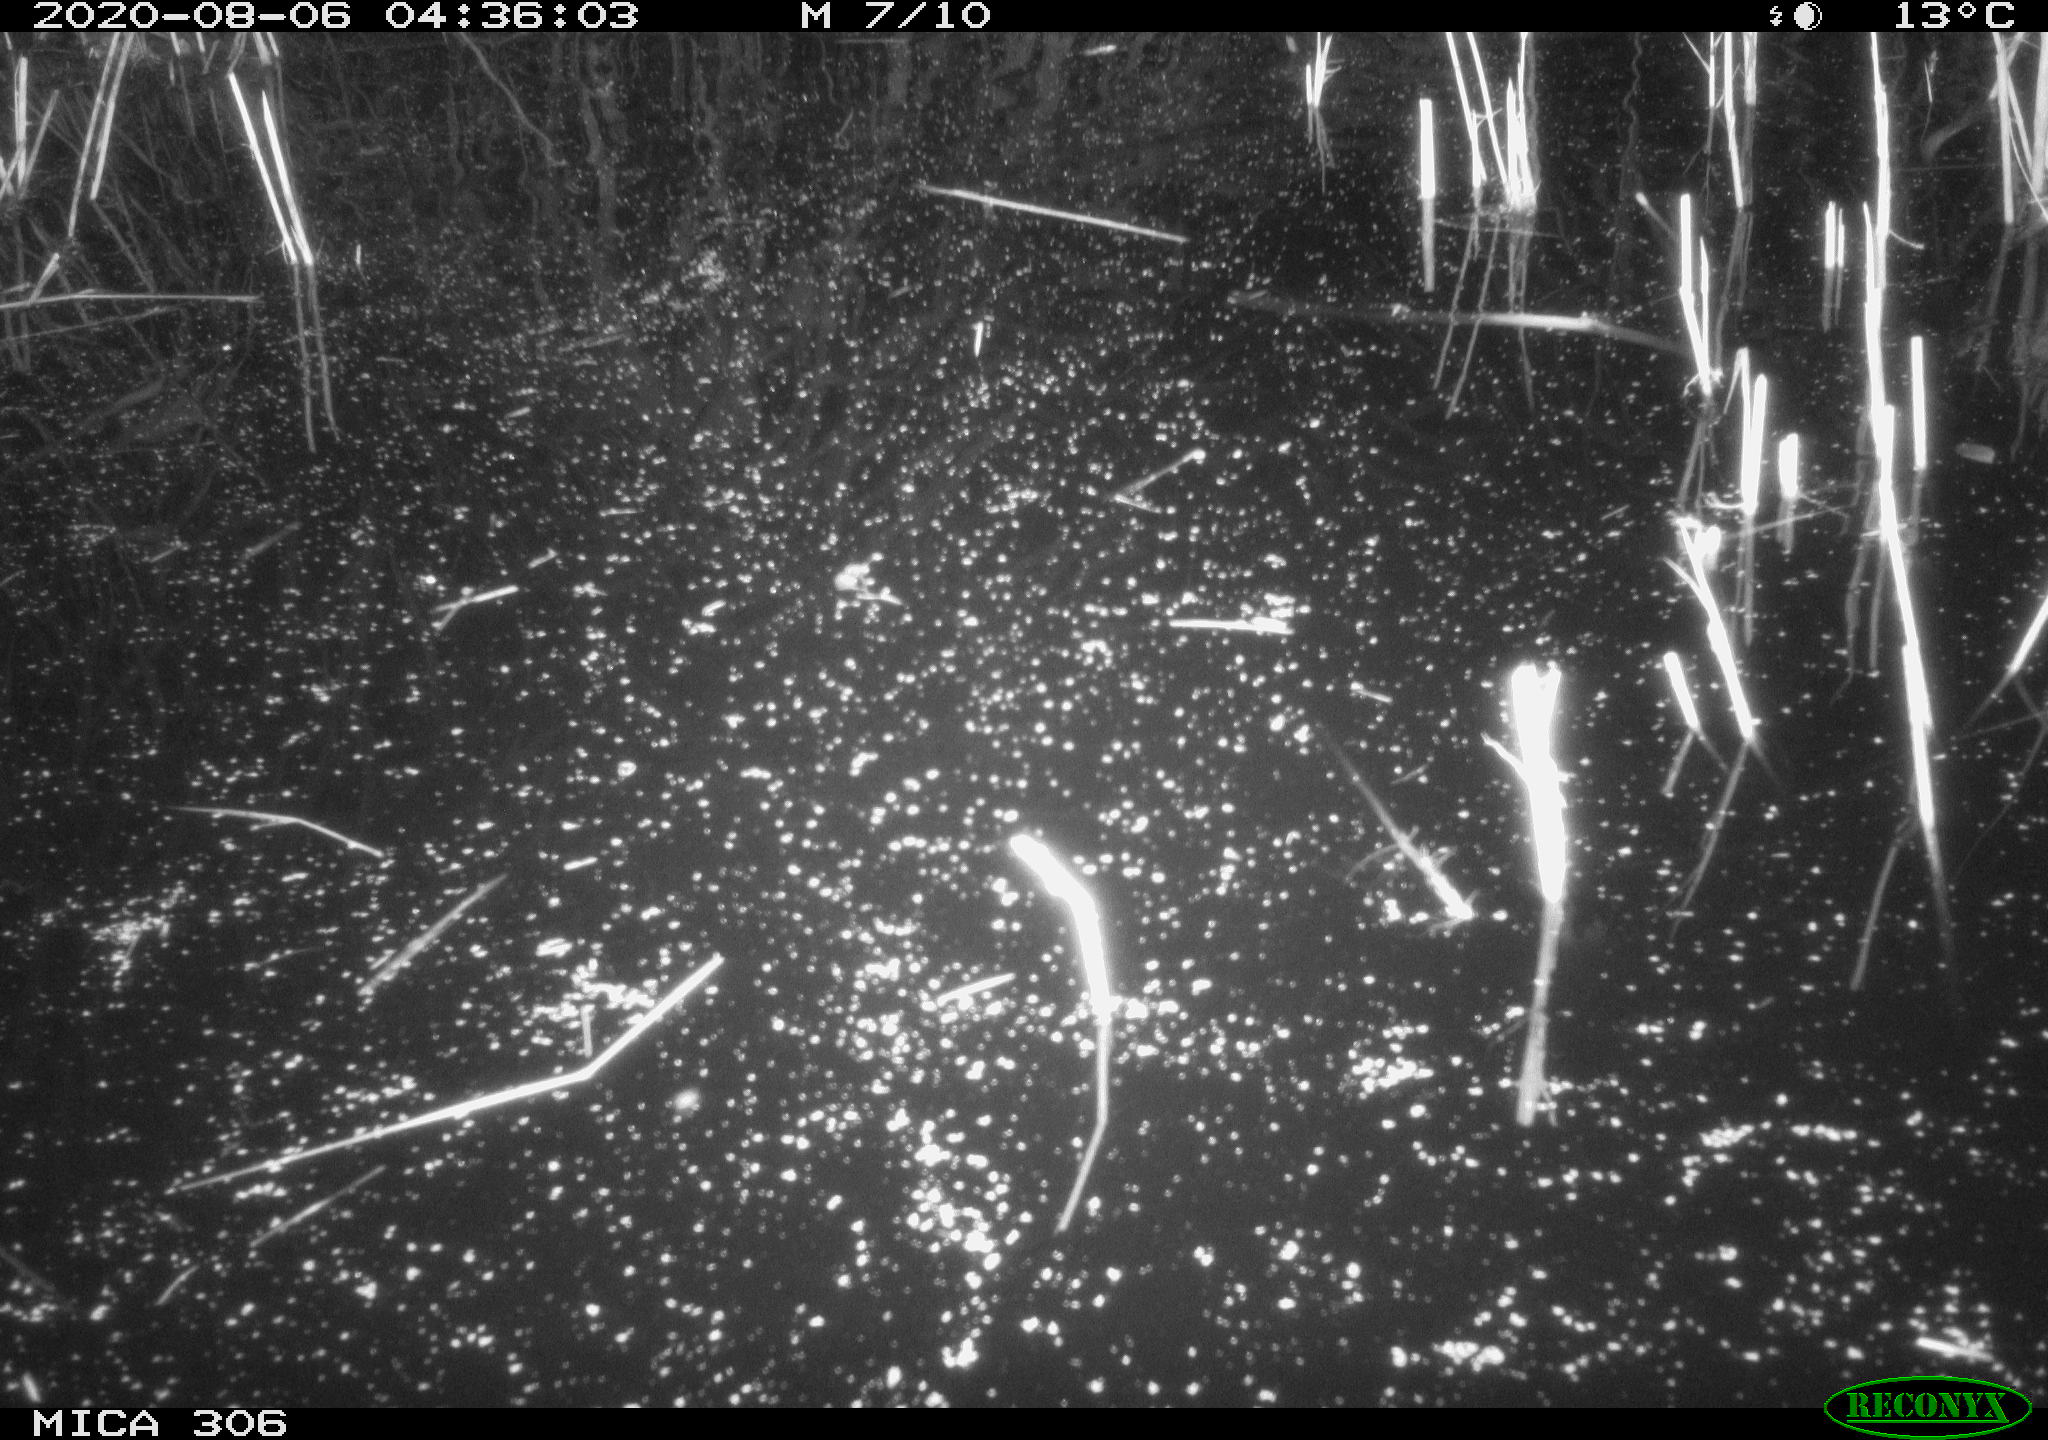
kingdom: Animalia
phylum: Chordata
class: Mammalia
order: Rodentia
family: Muridae
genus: Rattus
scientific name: Rattus norvegicus
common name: Brown rat
